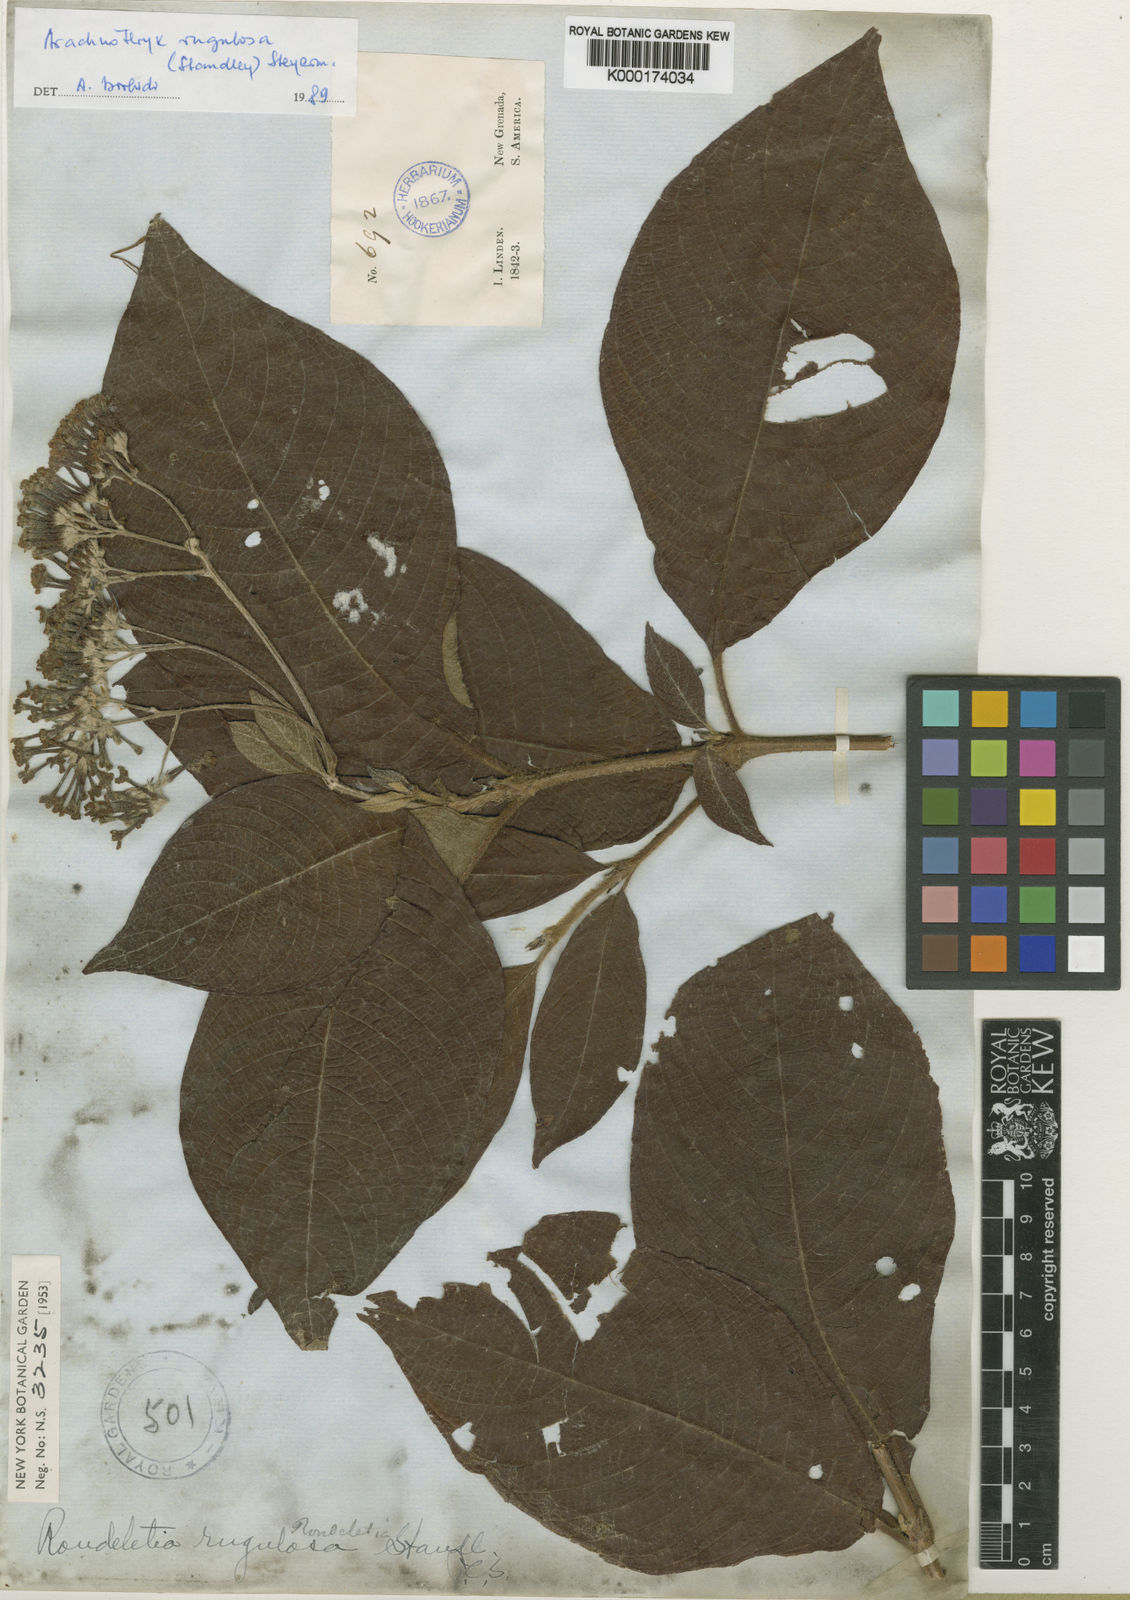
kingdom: Plantae
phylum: Tracheophyta
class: Magnoliopsida
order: Gentianales
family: Rubiaceae
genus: Arachnothryx
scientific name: Arachnothryx rugulosa
